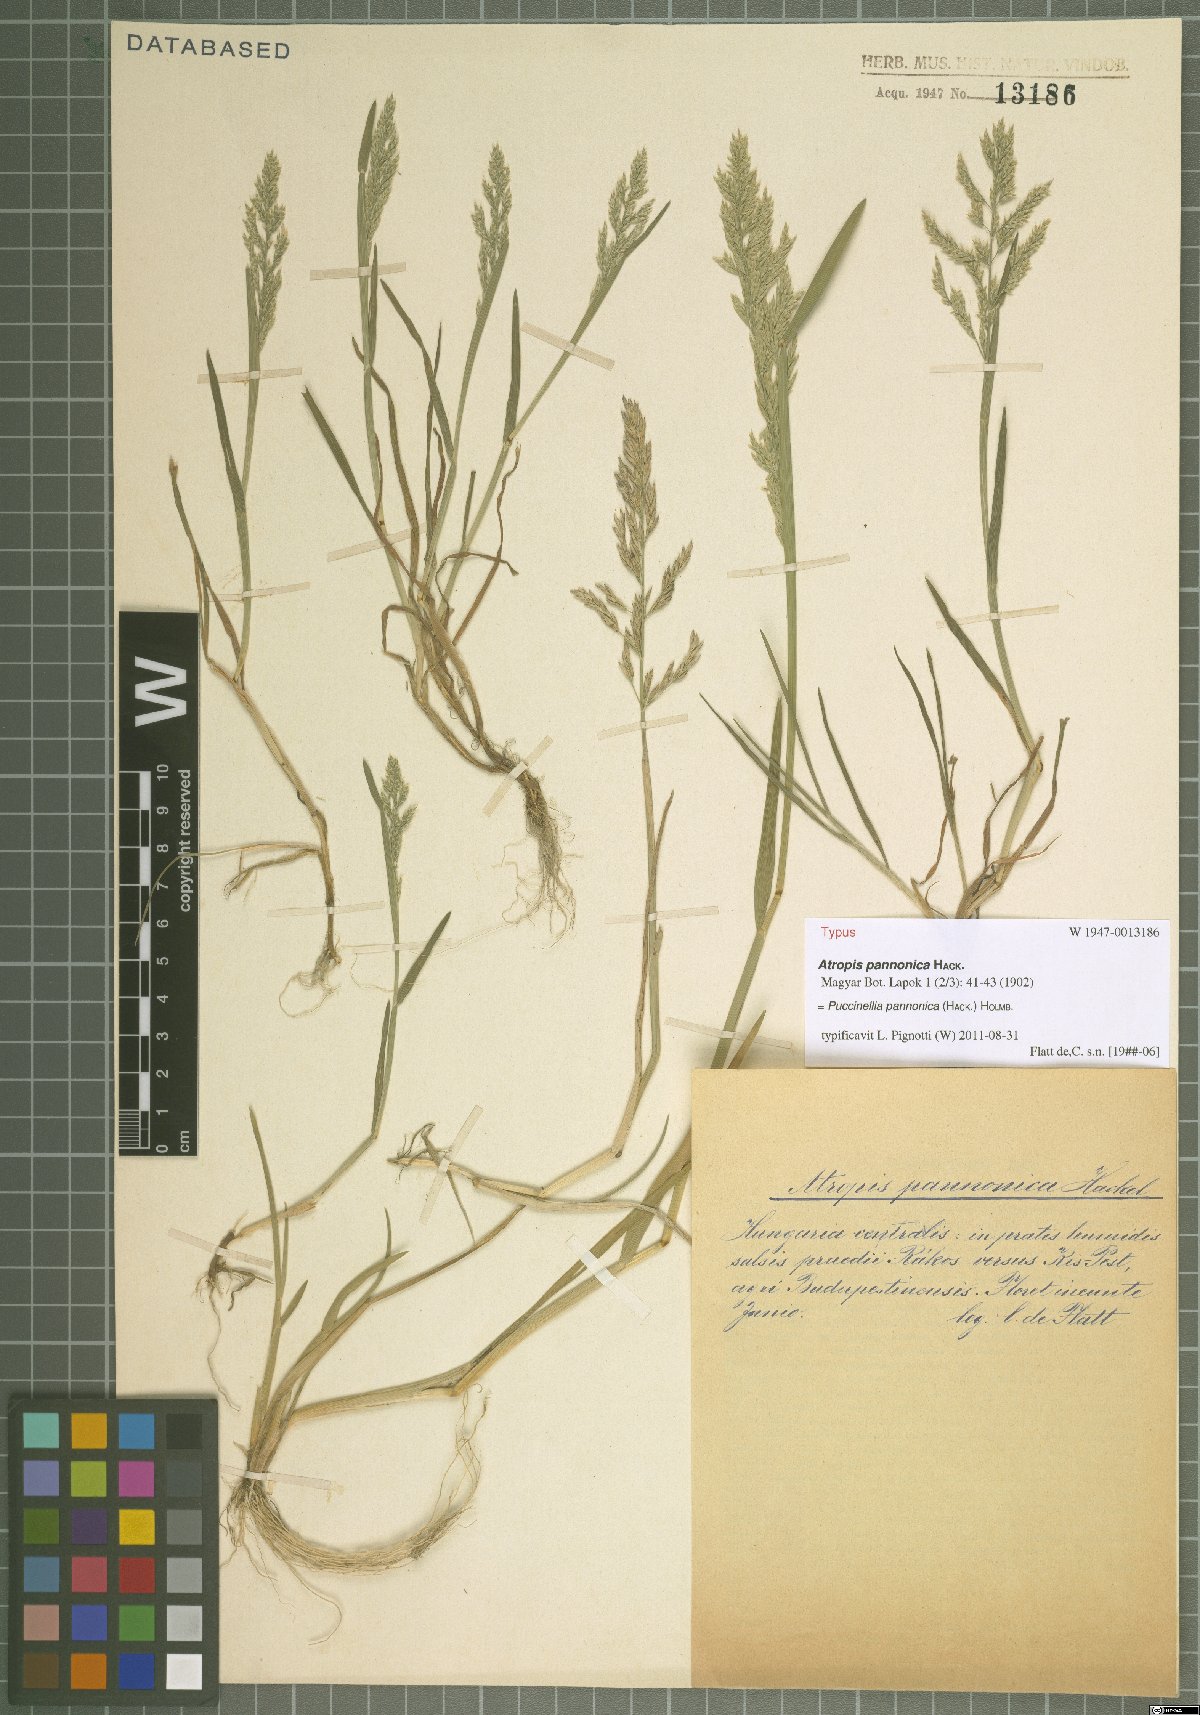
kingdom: Plantae
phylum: Tracheophyta
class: Liliopsida
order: Poales
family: Poaceae
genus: Puccinellia
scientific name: Puccinellia pannonica
